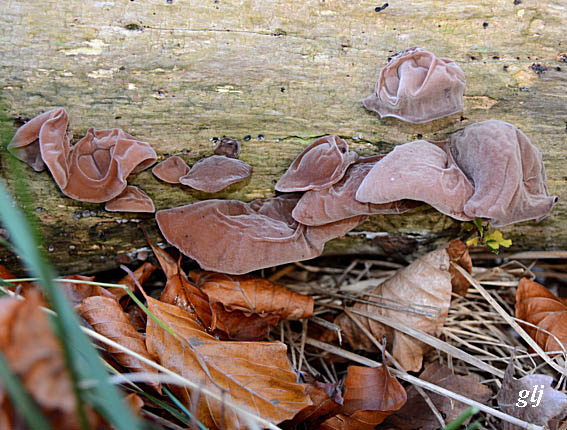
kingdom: Fungi
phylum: Basidiomycota
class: Agaricomycetes
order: Auriculariales
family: Auriculariaceae
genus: Auricularia
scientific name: Auricularia auricula-judae
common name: almindelig judasøre
